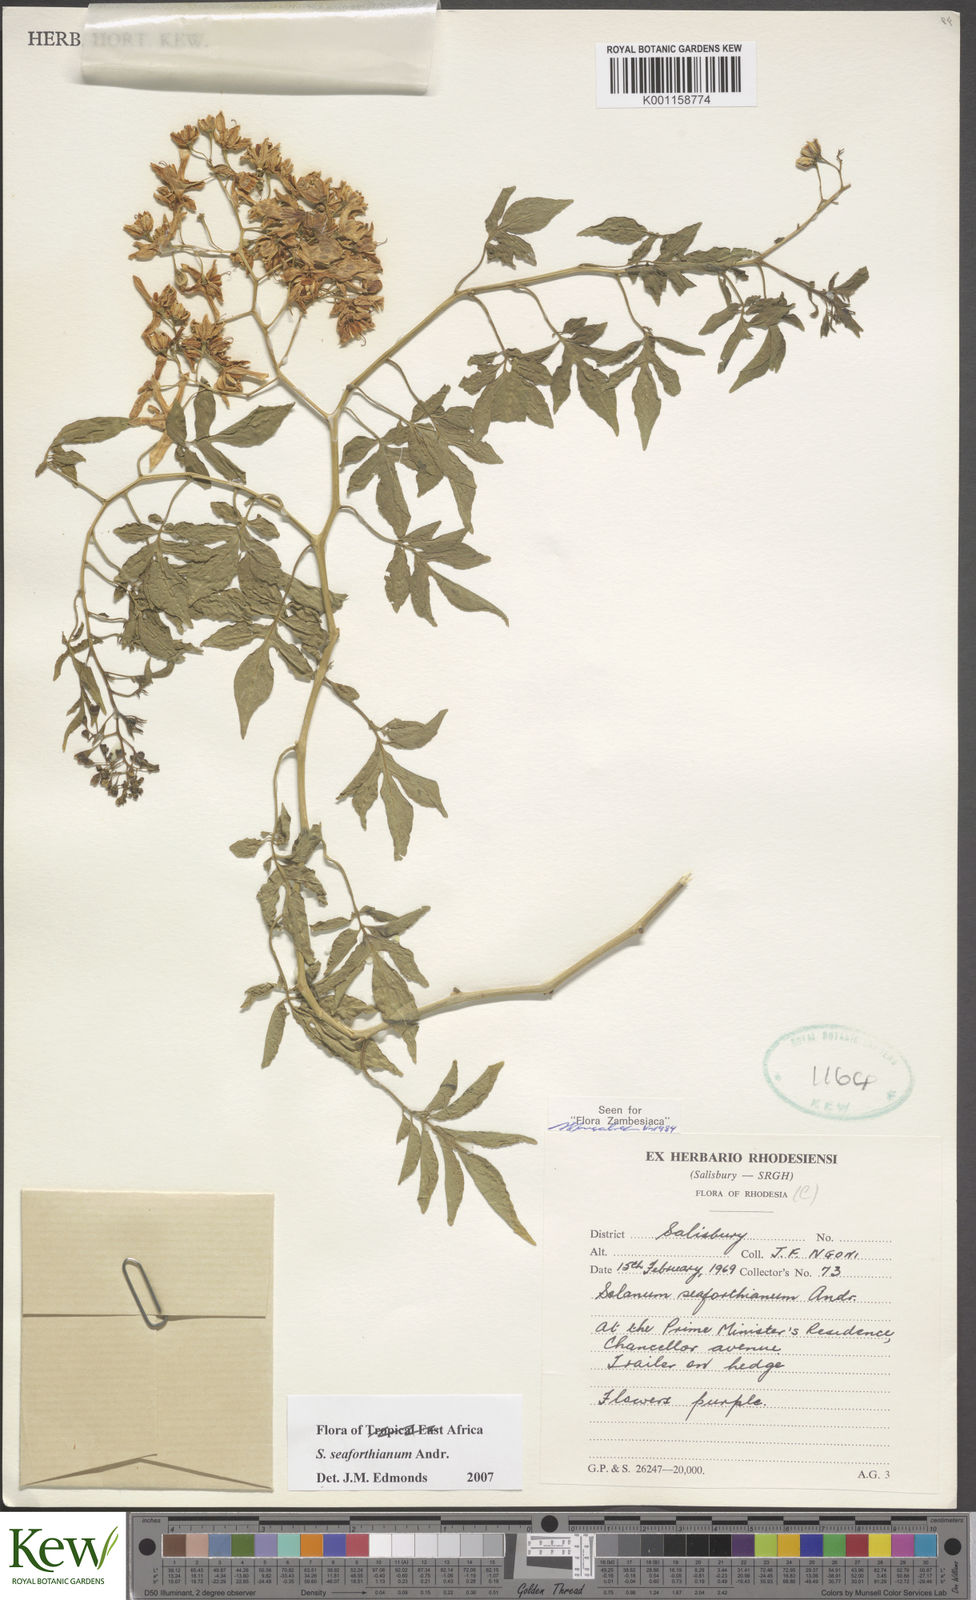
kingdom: Plantae
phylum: Tracheophyta
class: Magnoliopsida
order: Solanales
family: Solanaceae
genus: Solanum
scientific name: Solanum seaforthianum
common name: Brazilian nightshade
